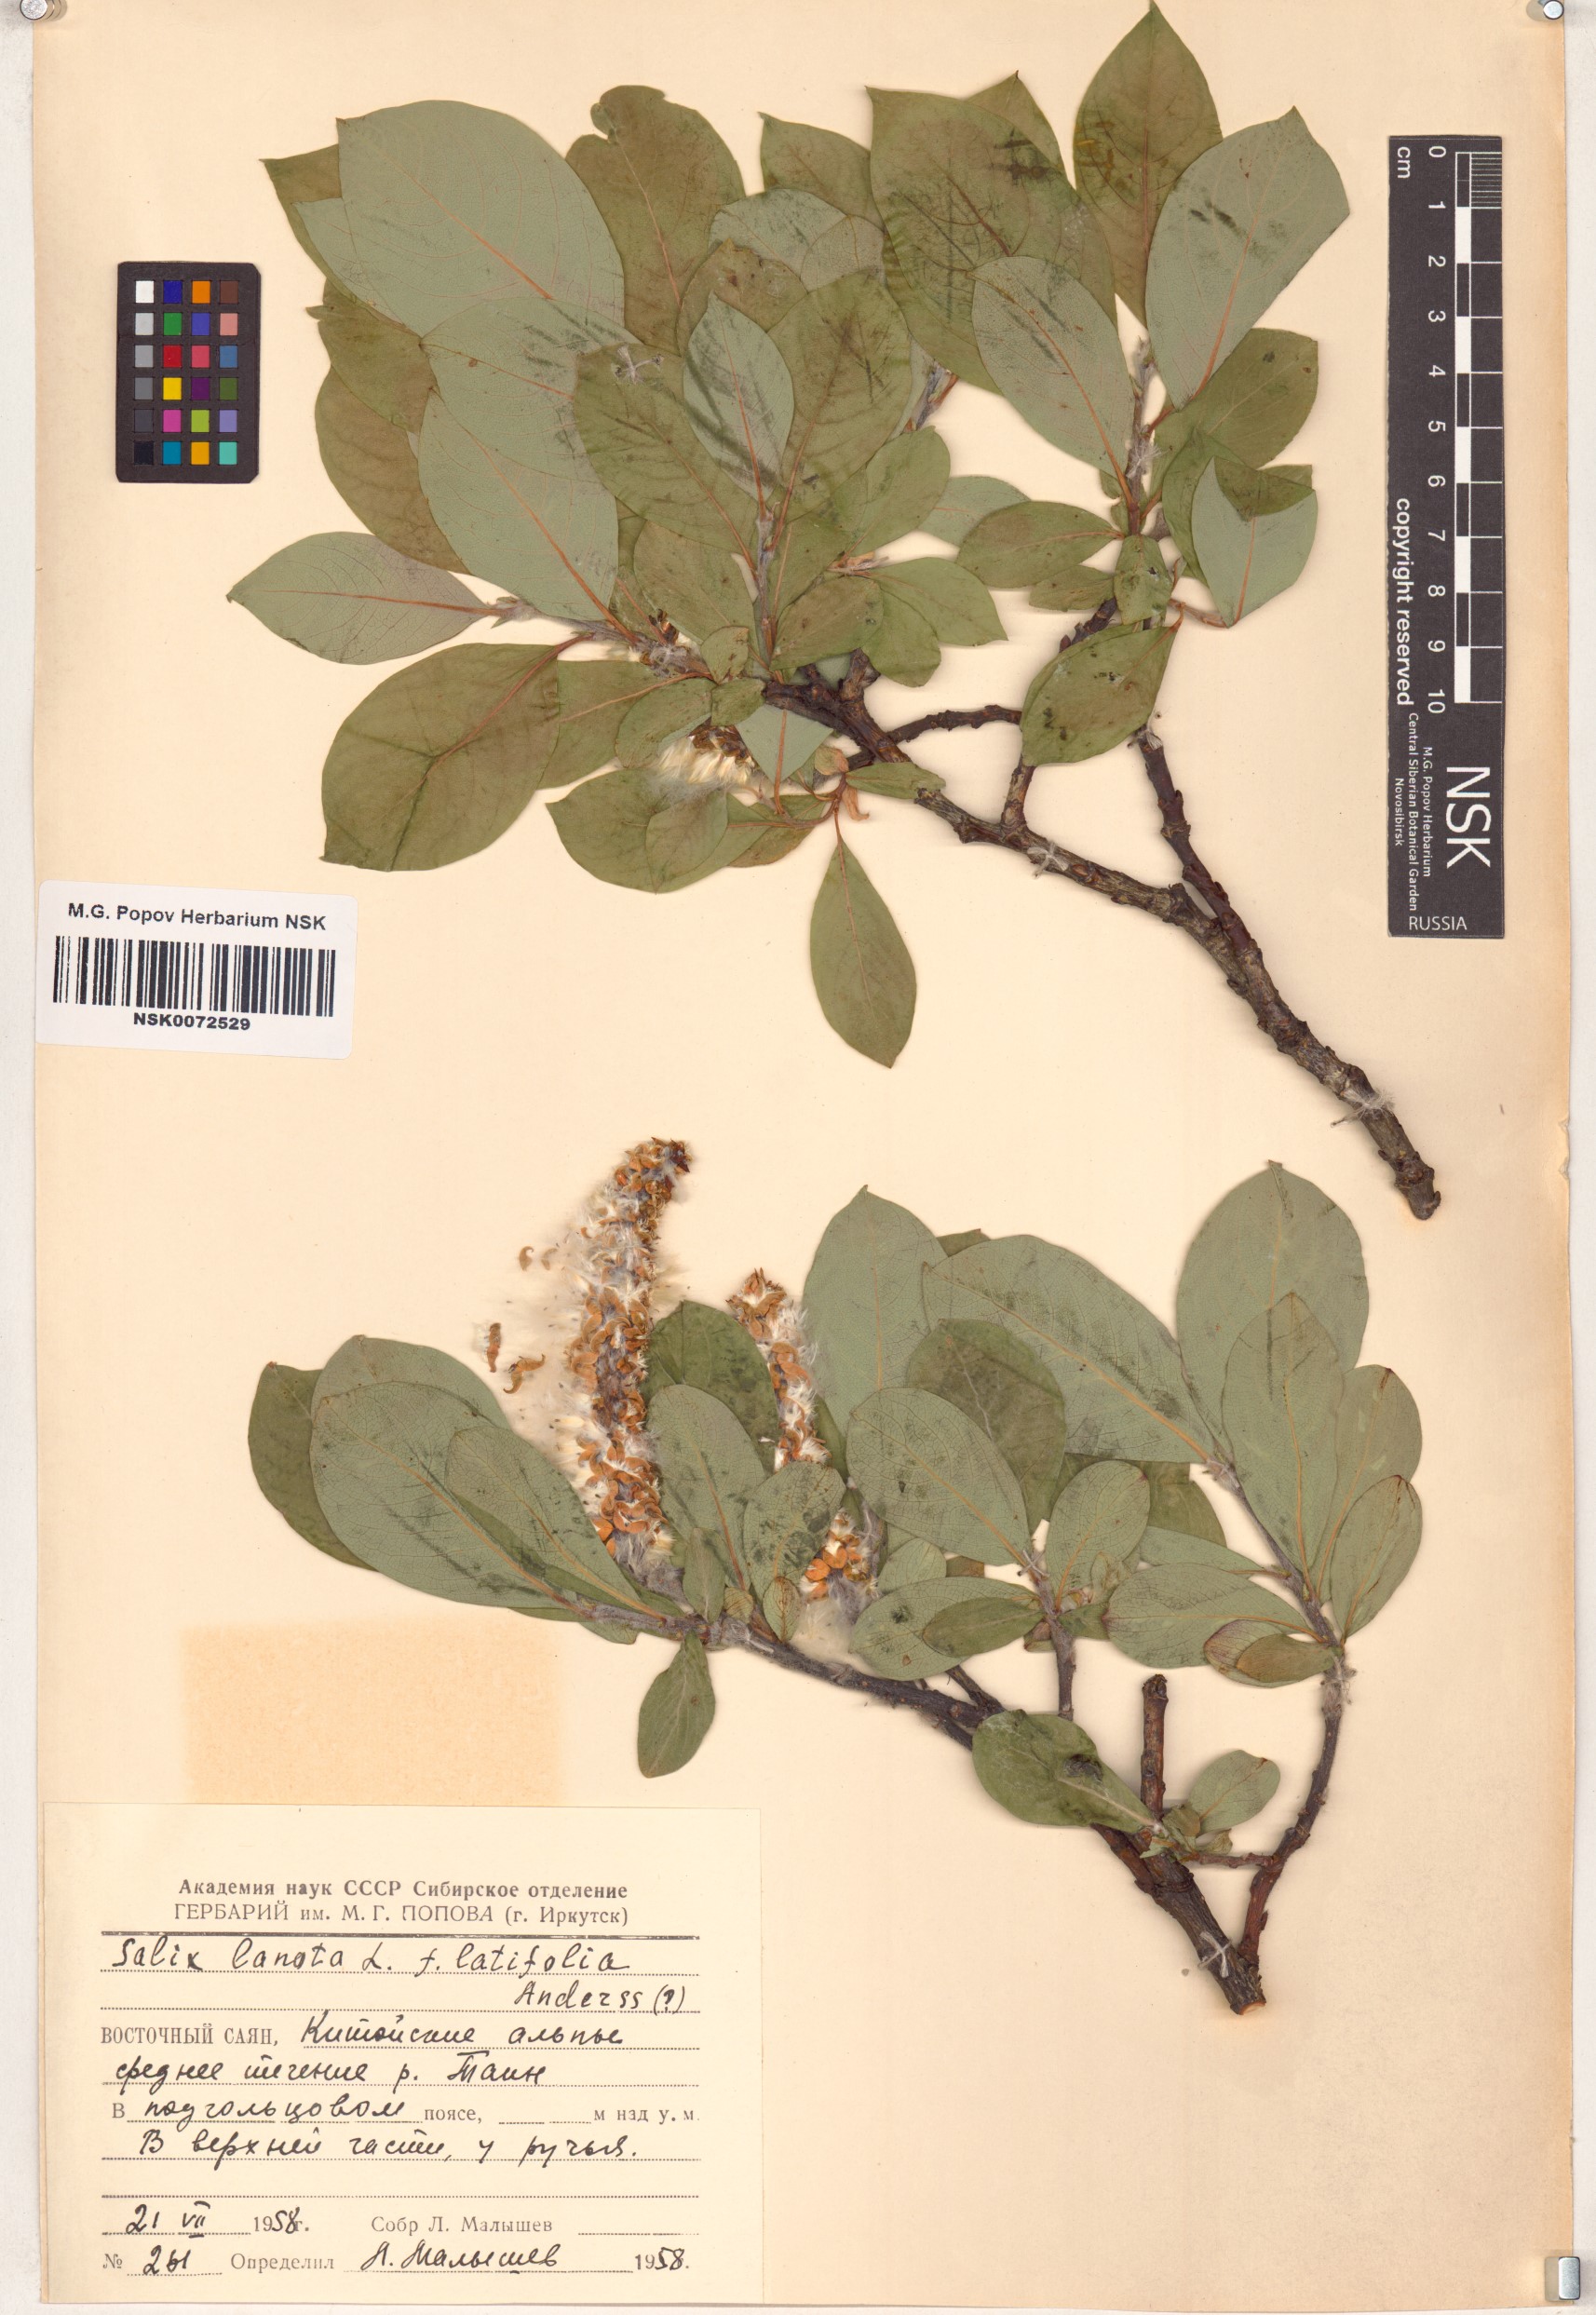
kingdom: Plantae
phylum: Tracheophyta
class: Magnoliopsida
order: Malpighiales
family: Salicaceae
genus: Salix
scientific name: Salix lanata
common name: Woolly willow
